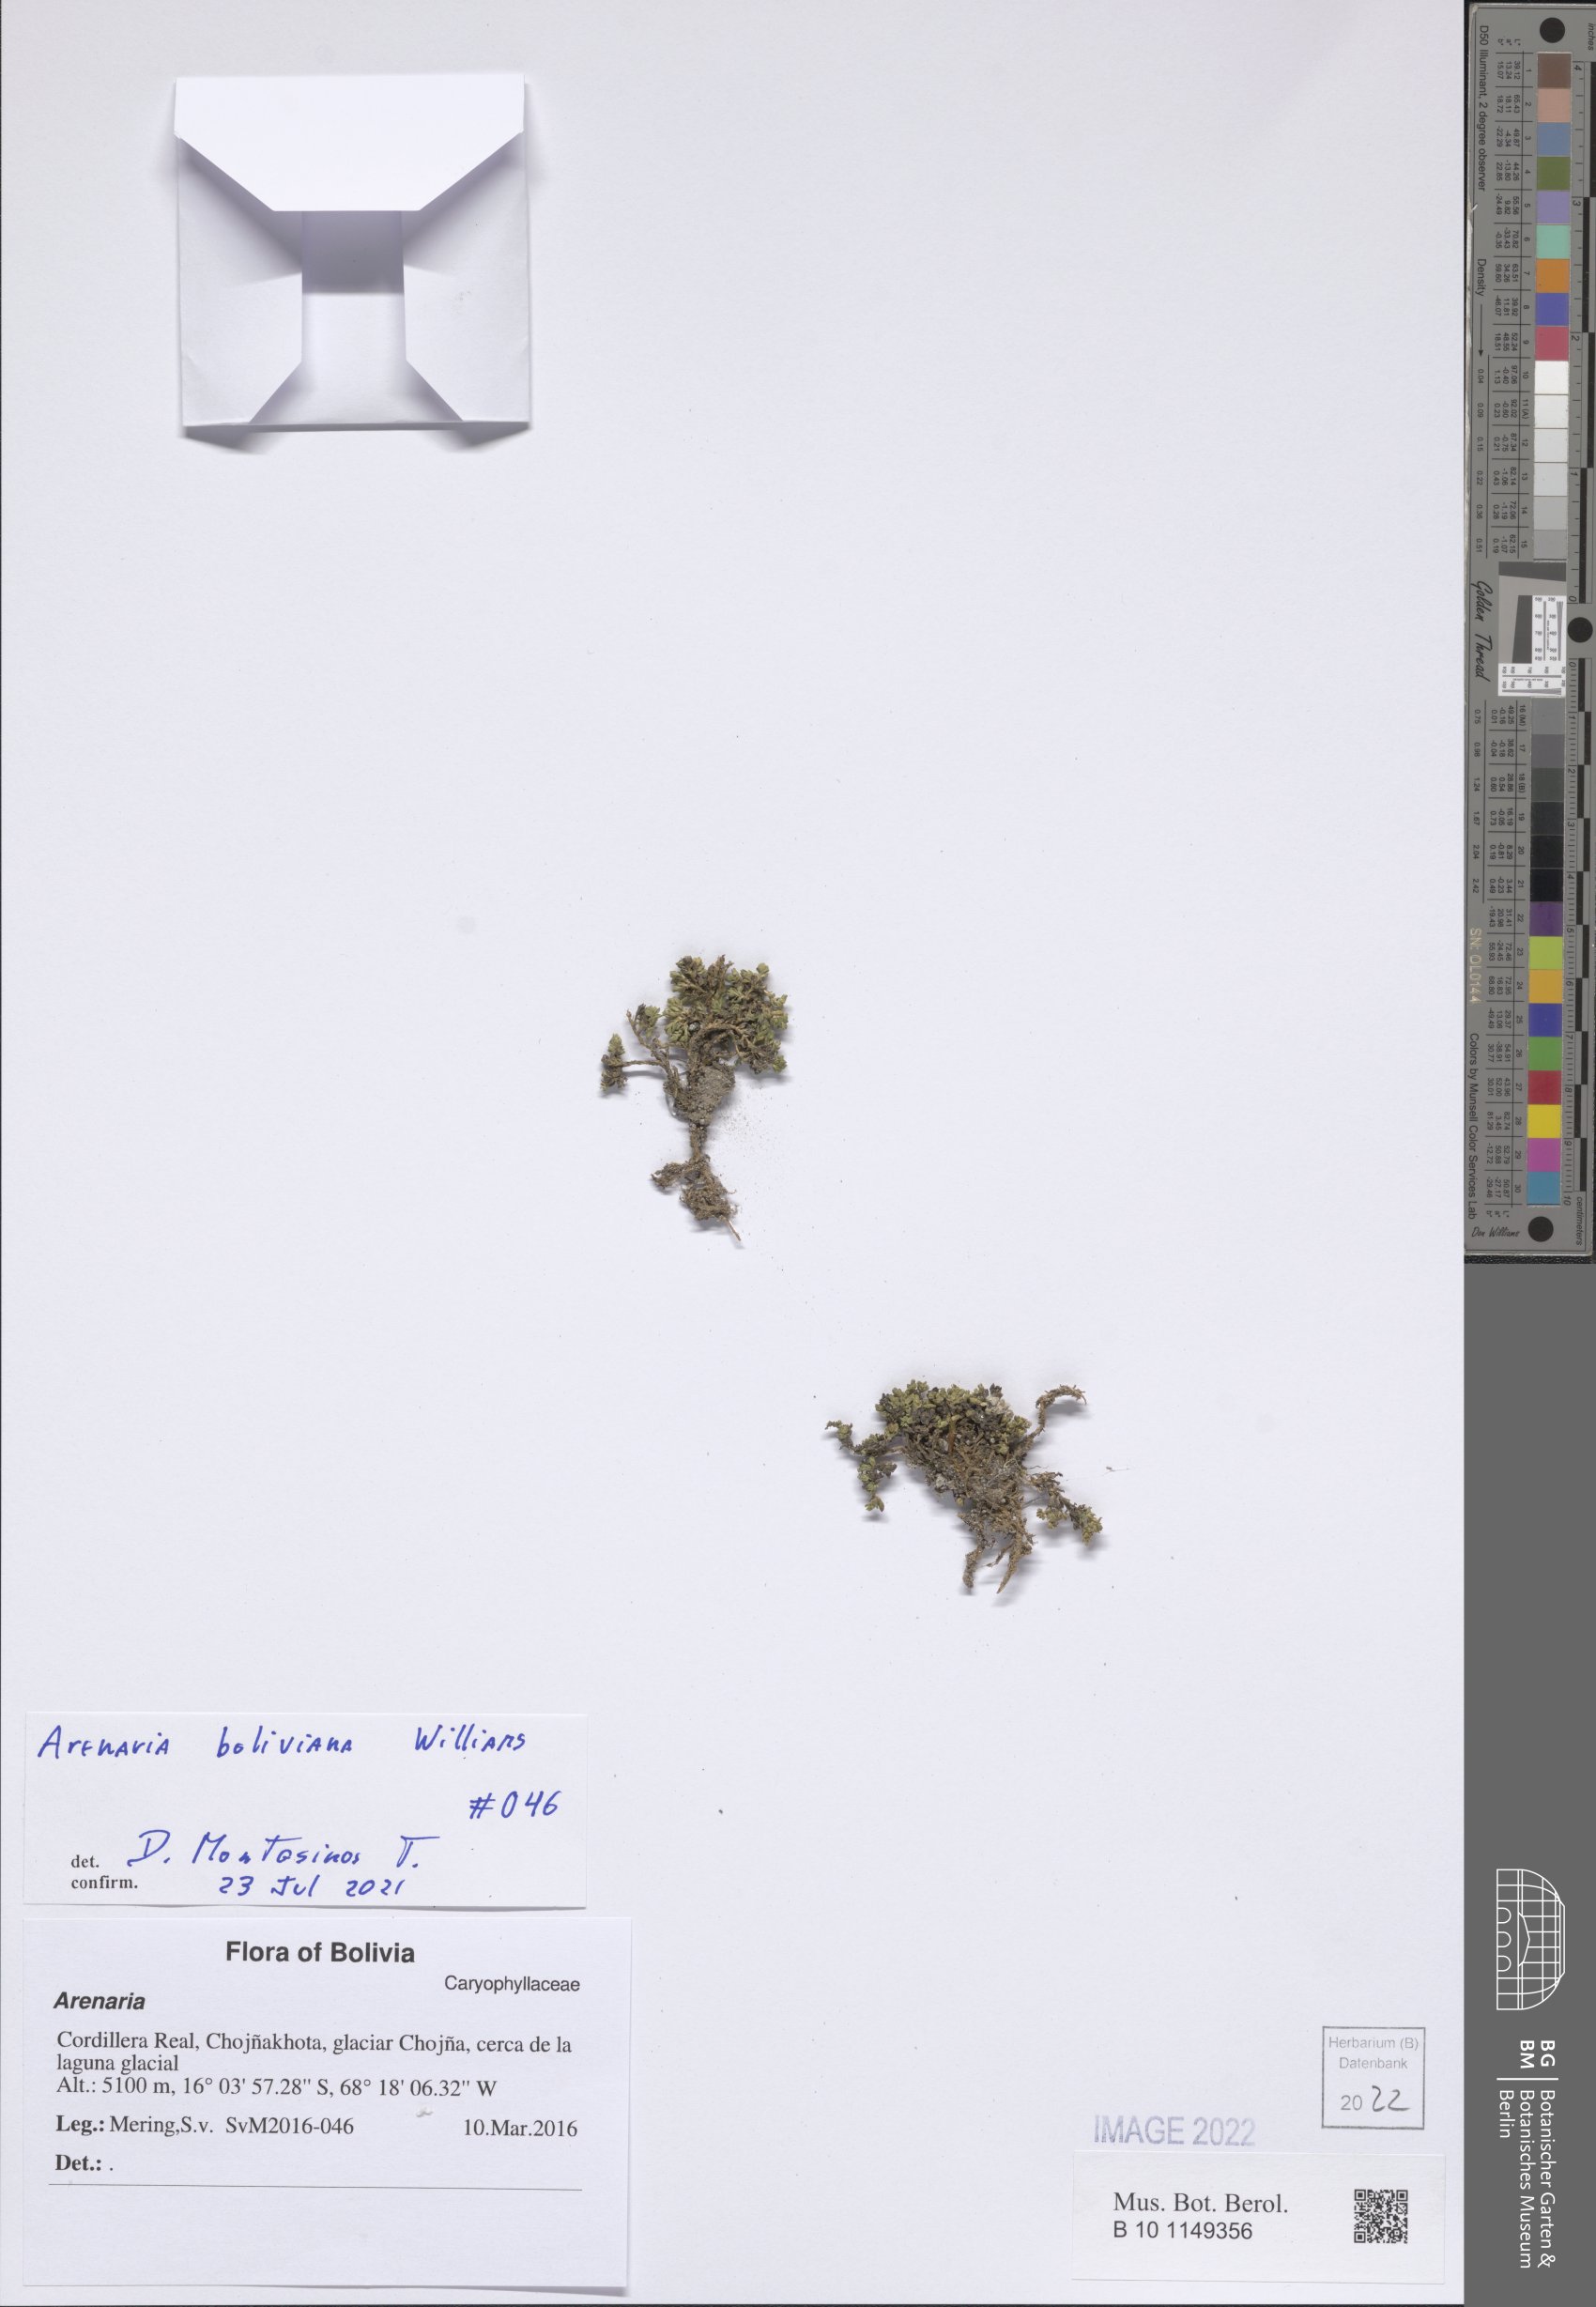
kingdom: Plantae
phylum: Tracheophyta
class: Magnoliopsida
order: Caryophyllales
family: Caryophyllaceae
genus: Arenaria
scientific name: Arenaria boliviana
